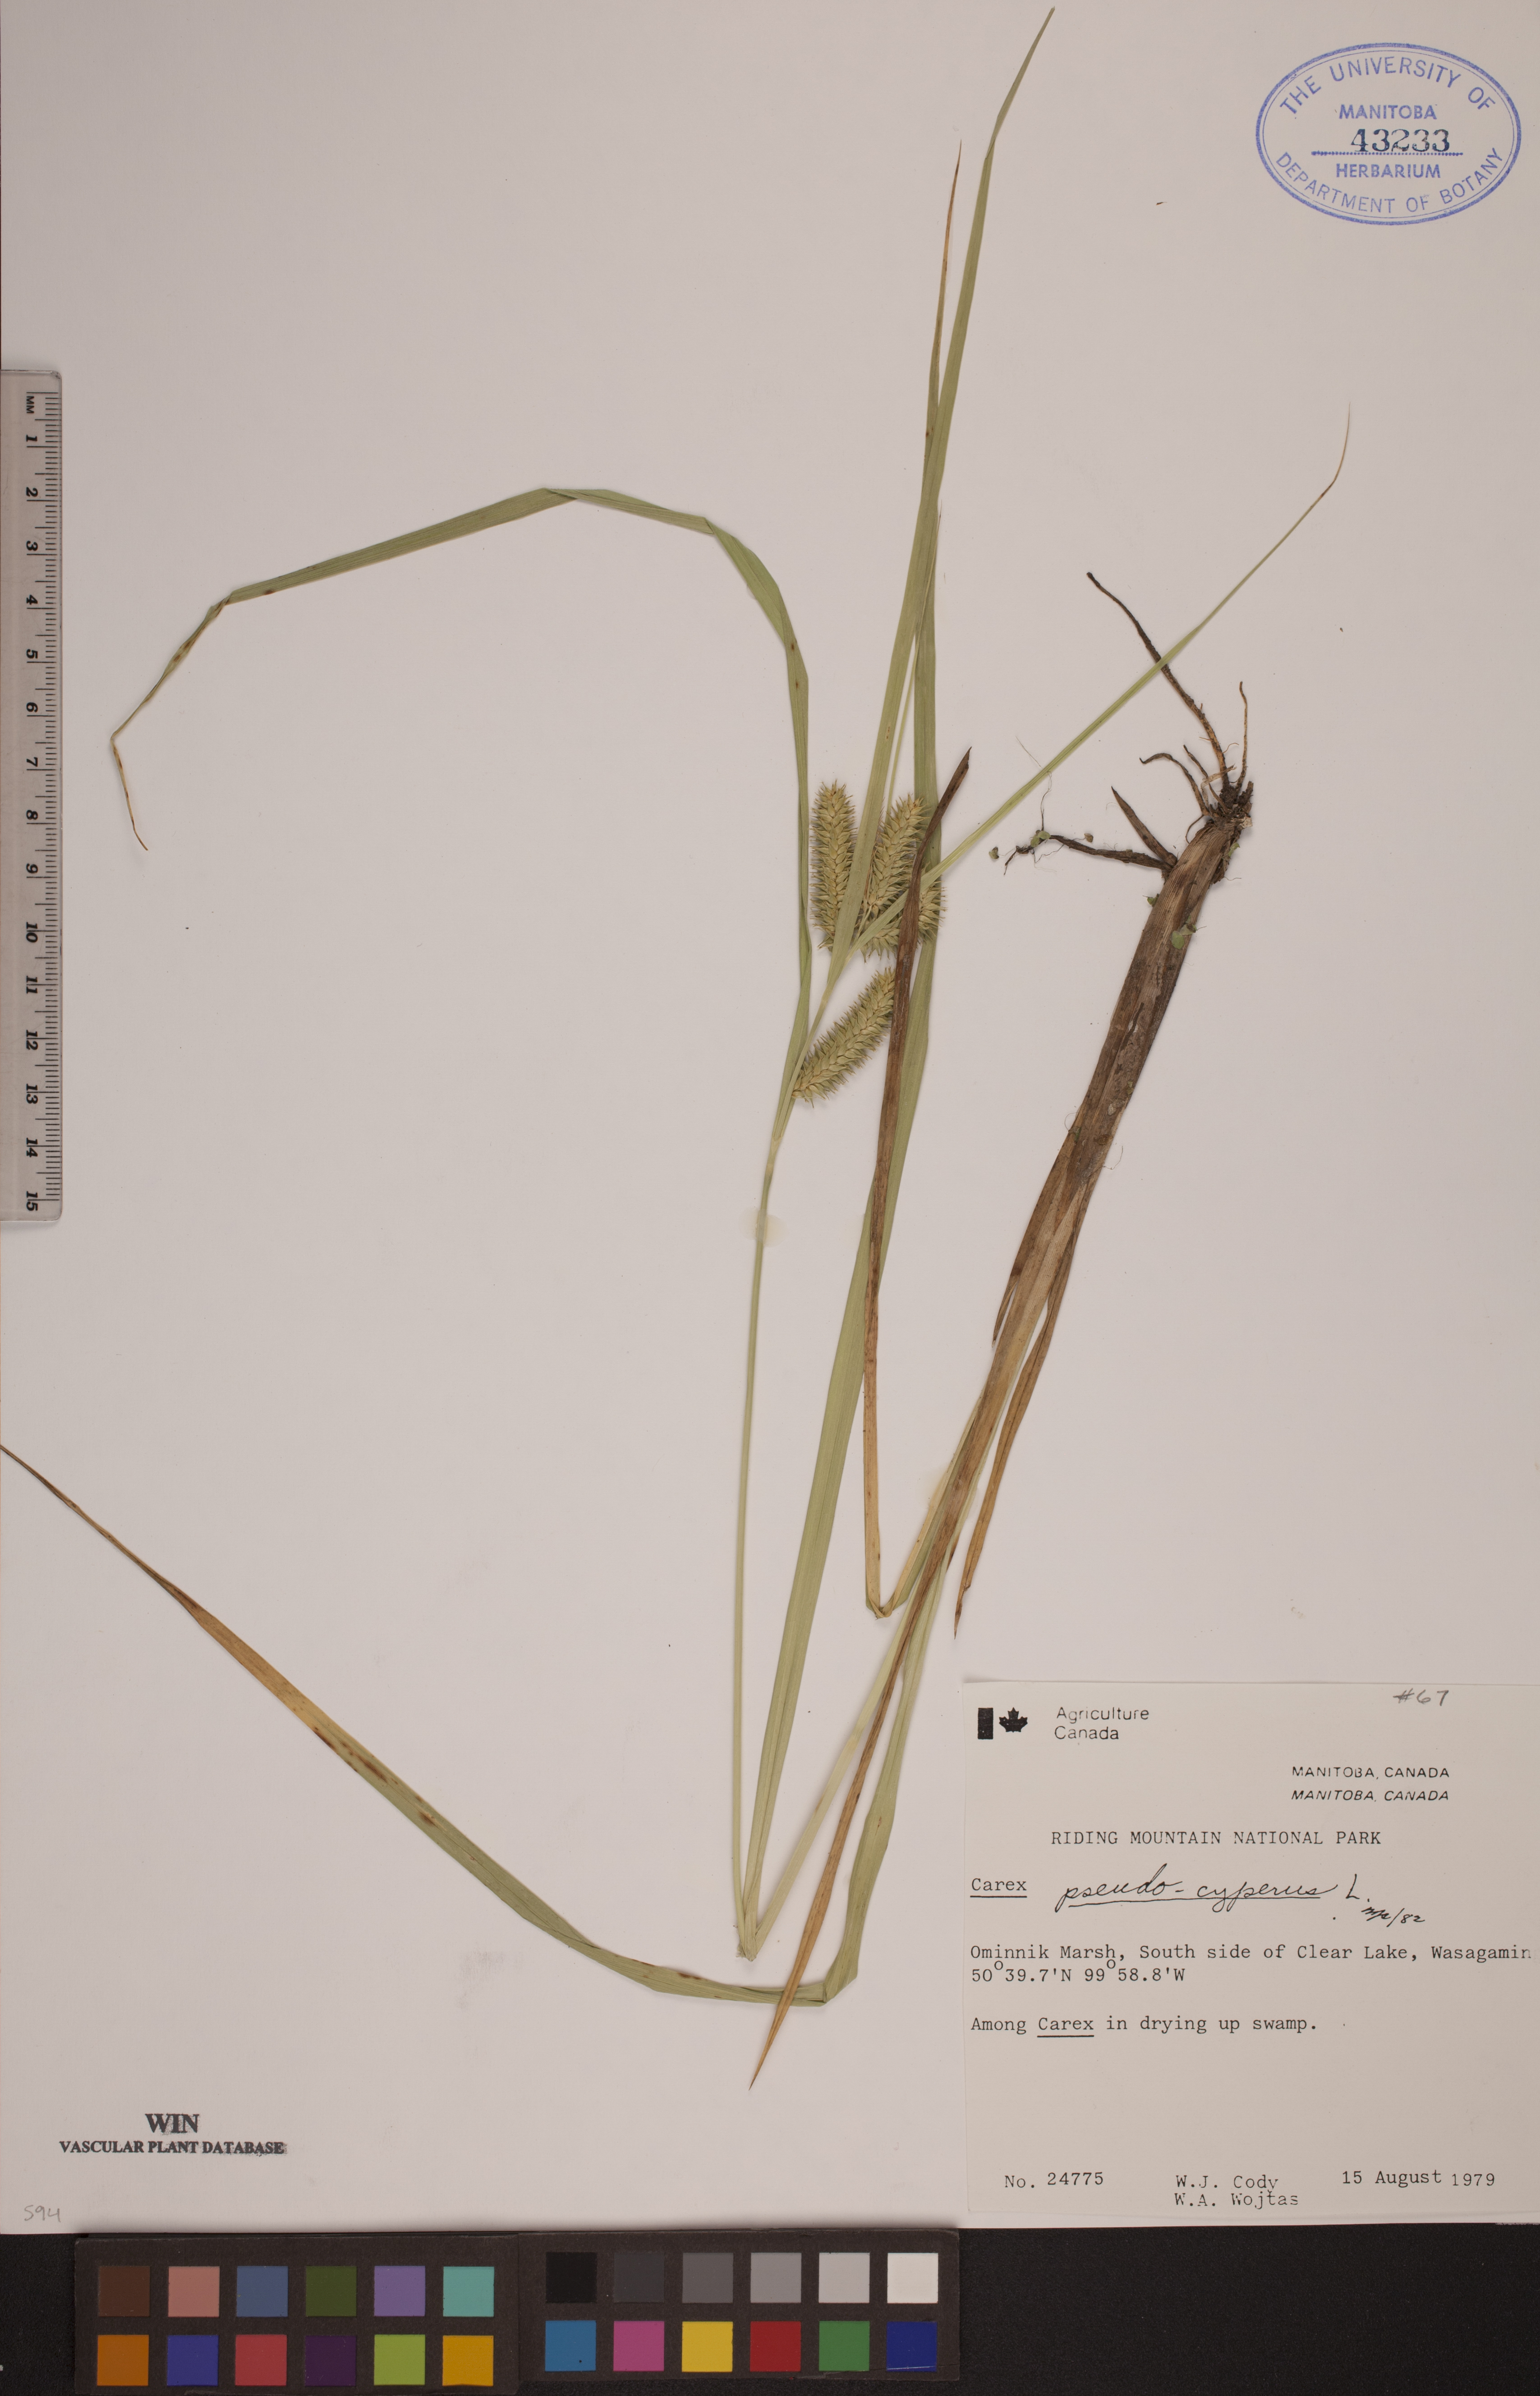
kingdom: Plantae
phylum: Tracheophyta
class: Liliopsida
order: Poales
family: Cyperaceae
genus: Carex
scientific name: Carex pseudocyperus
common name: Cyperus sedge
